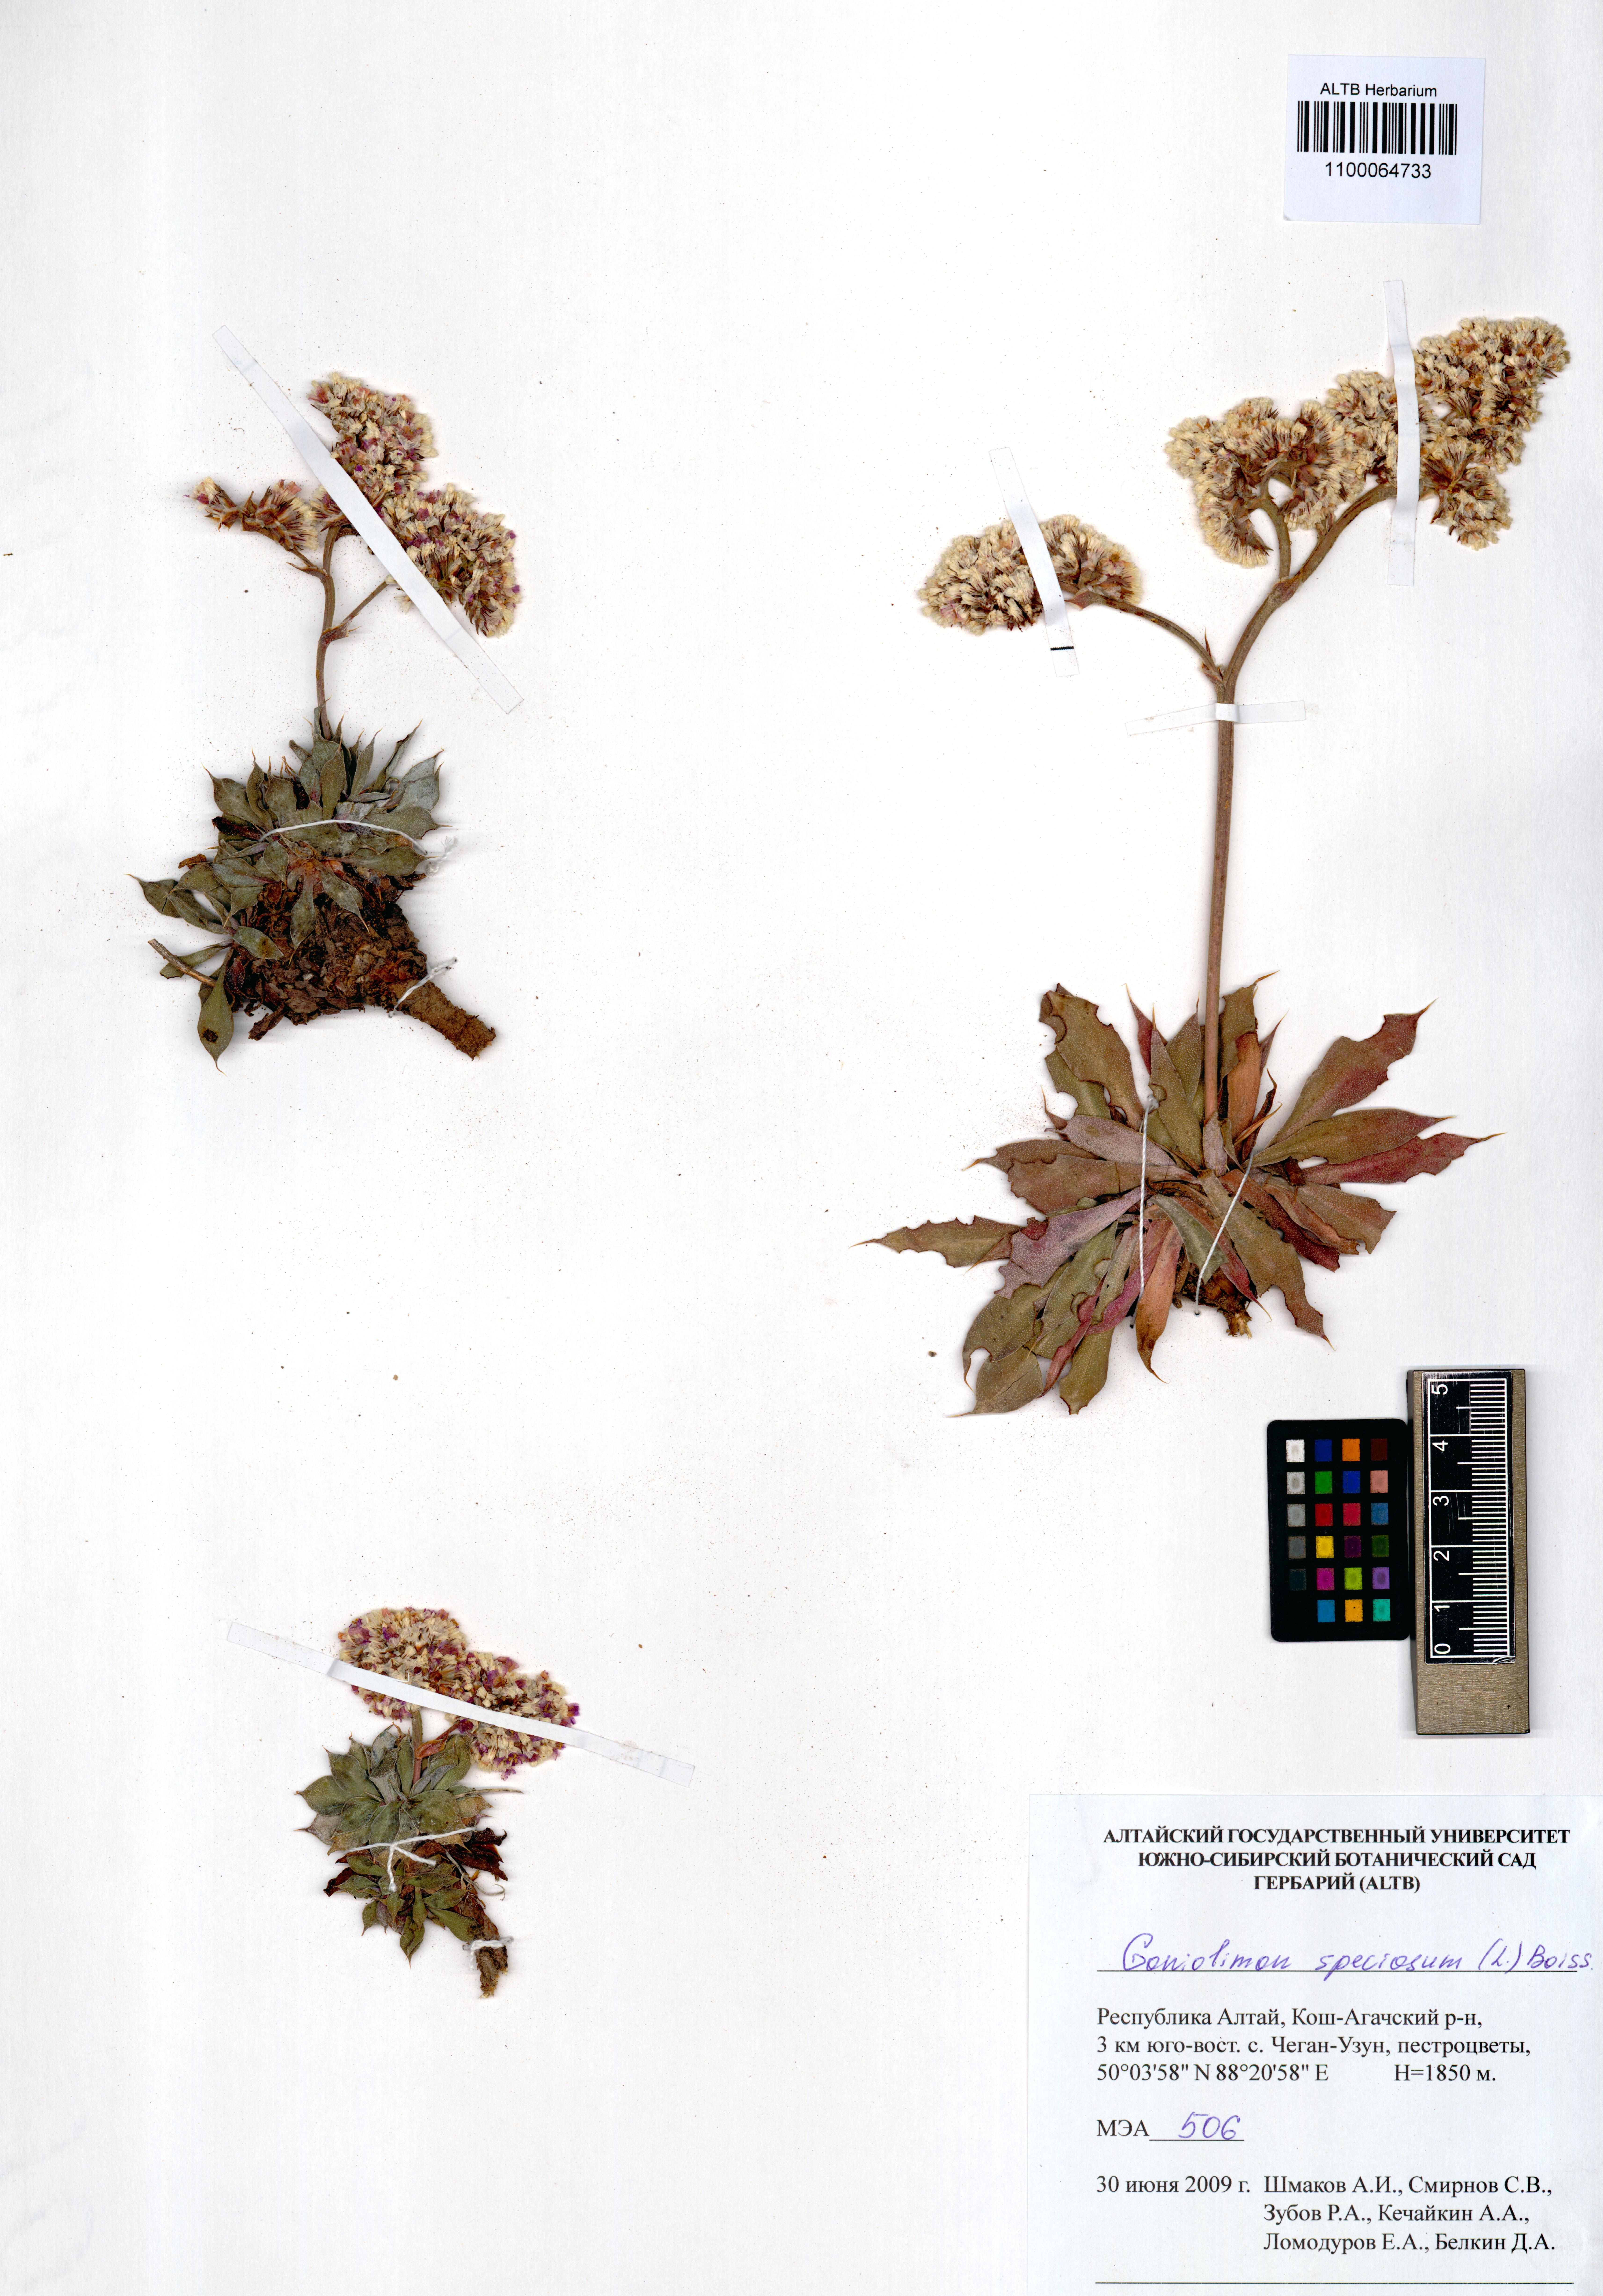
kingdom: Plantae
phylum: Tracheophyta
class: Magnoliopsida
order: Caryophyllales
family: Plumbaginaceae
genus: Goniolimon
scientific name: Goniolimon speciosum
